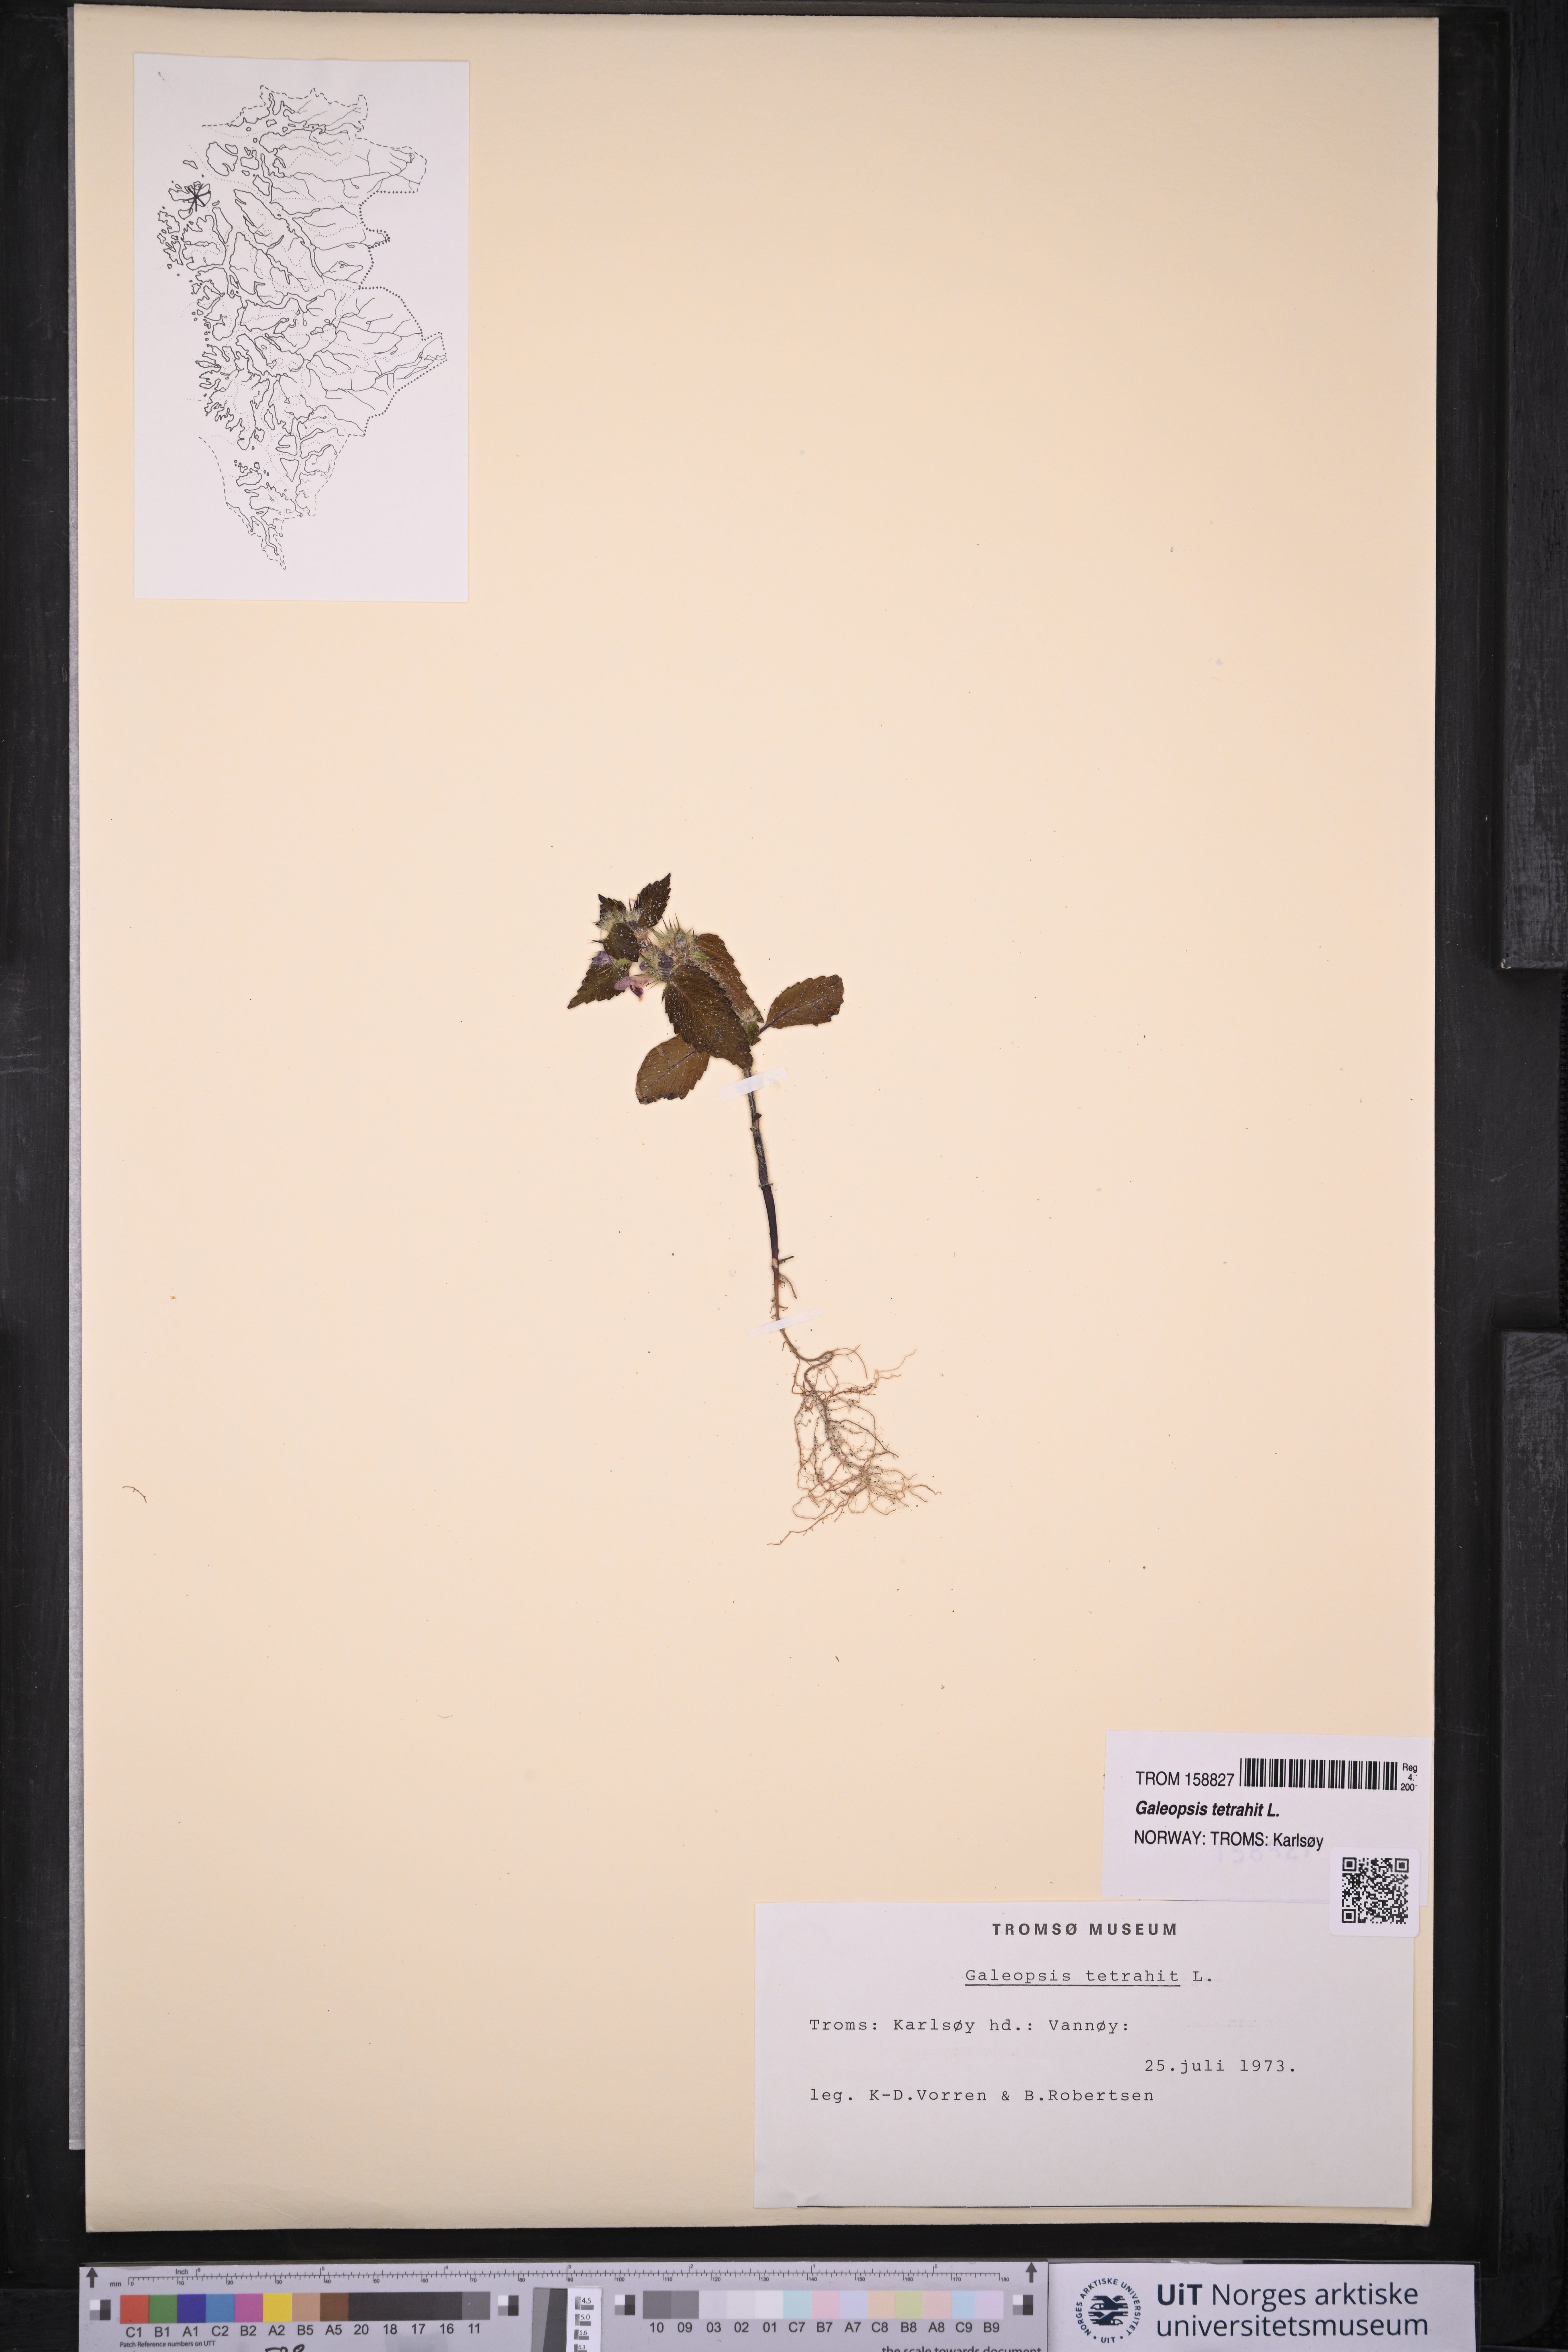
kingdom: Plantae
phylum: Tracheophyta
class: Magnoliopsida
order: Lamiales
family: Lamiaceae
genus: Galeopsis
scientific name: Galeopsis tetrahit
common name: Common hemp-nettle
